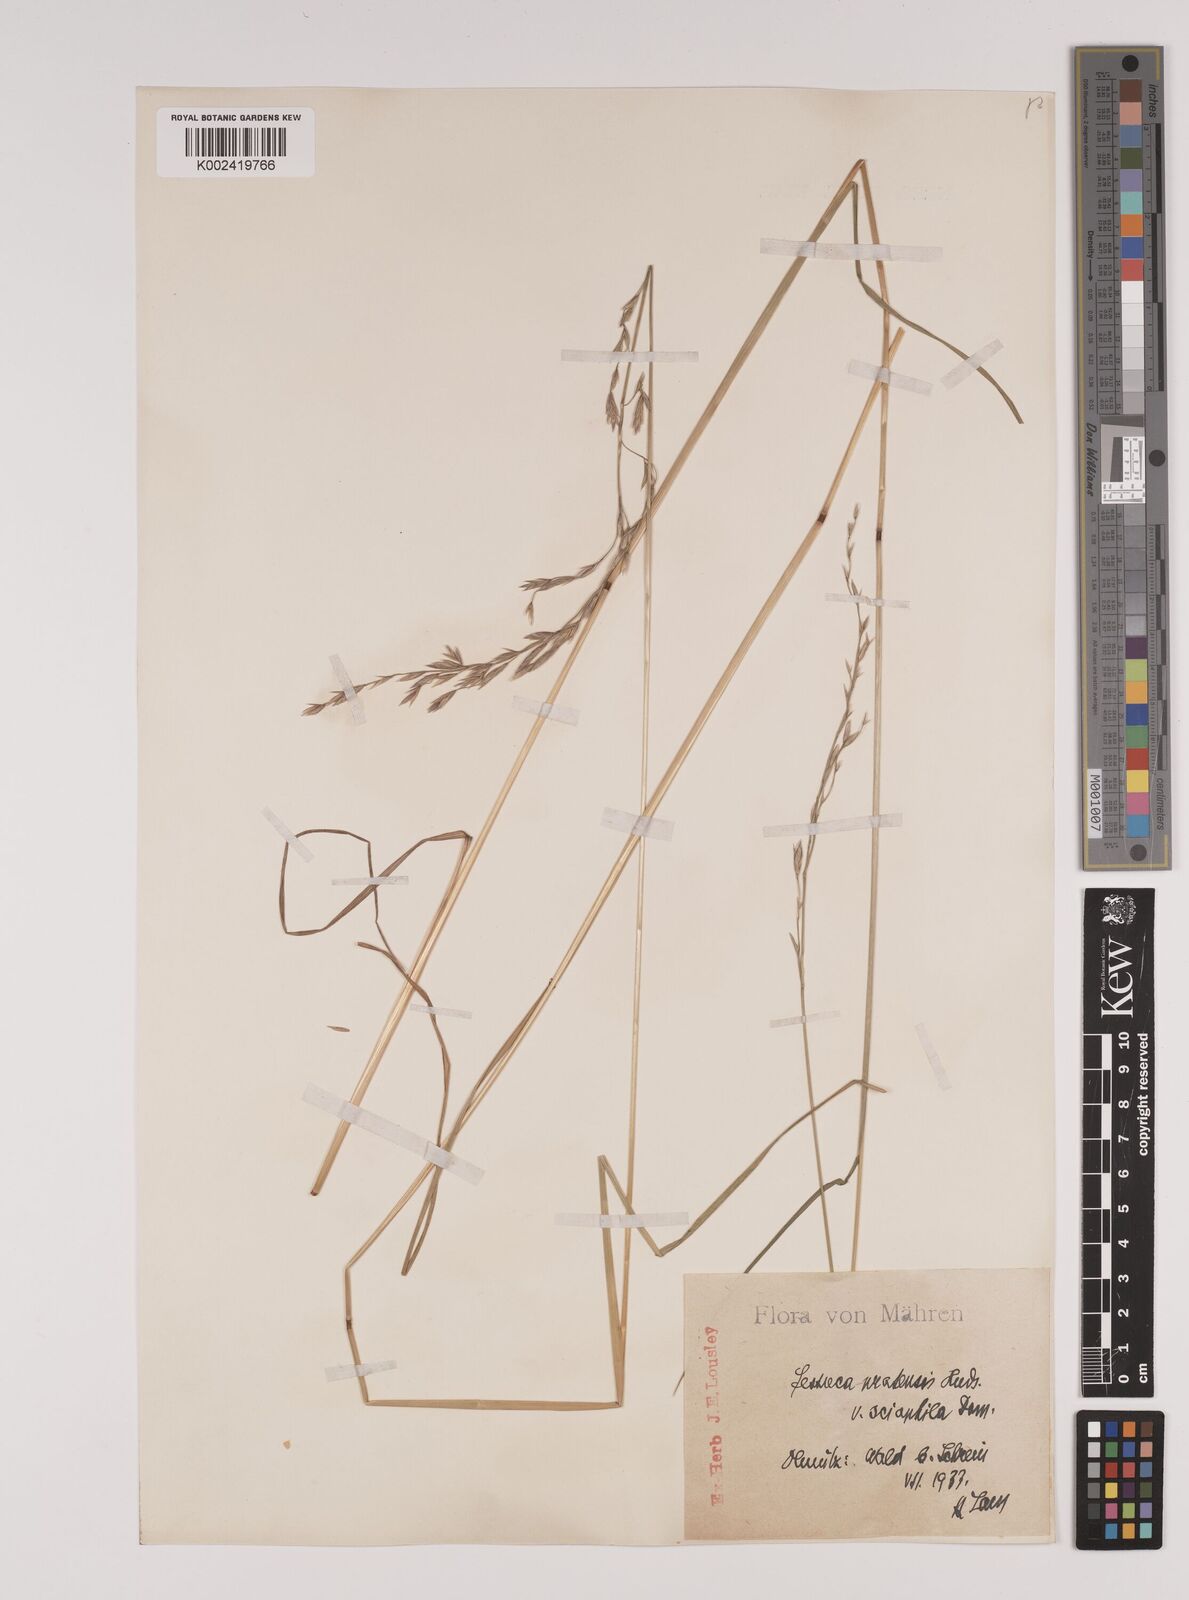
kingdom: Plantae
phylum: Tracheophyta
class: Liliopsida
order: Poales
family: Poaceae
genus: Lolium
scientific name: Lolium pratense
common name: Dover grass
